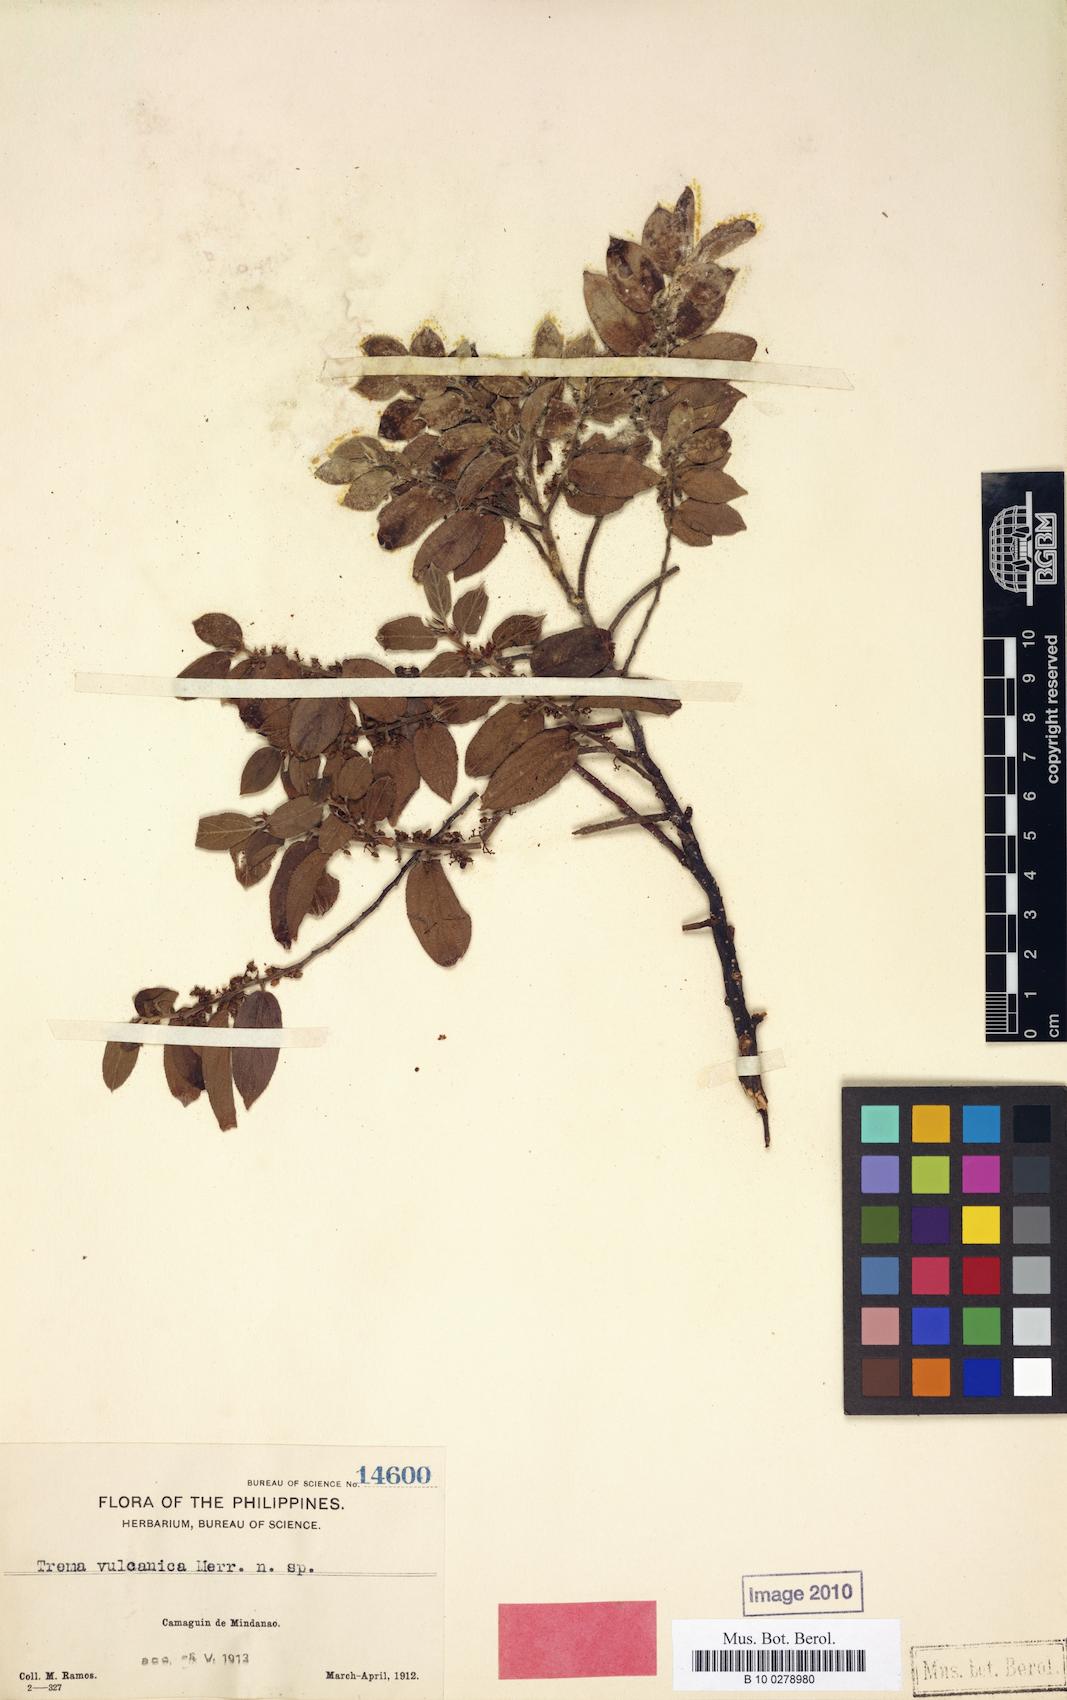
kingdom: Plantae
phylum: Tracheophyta
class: Magnoliopsida
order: Rosales
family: Cannabaceae
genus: Trema
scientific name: Trema eurhynchum
